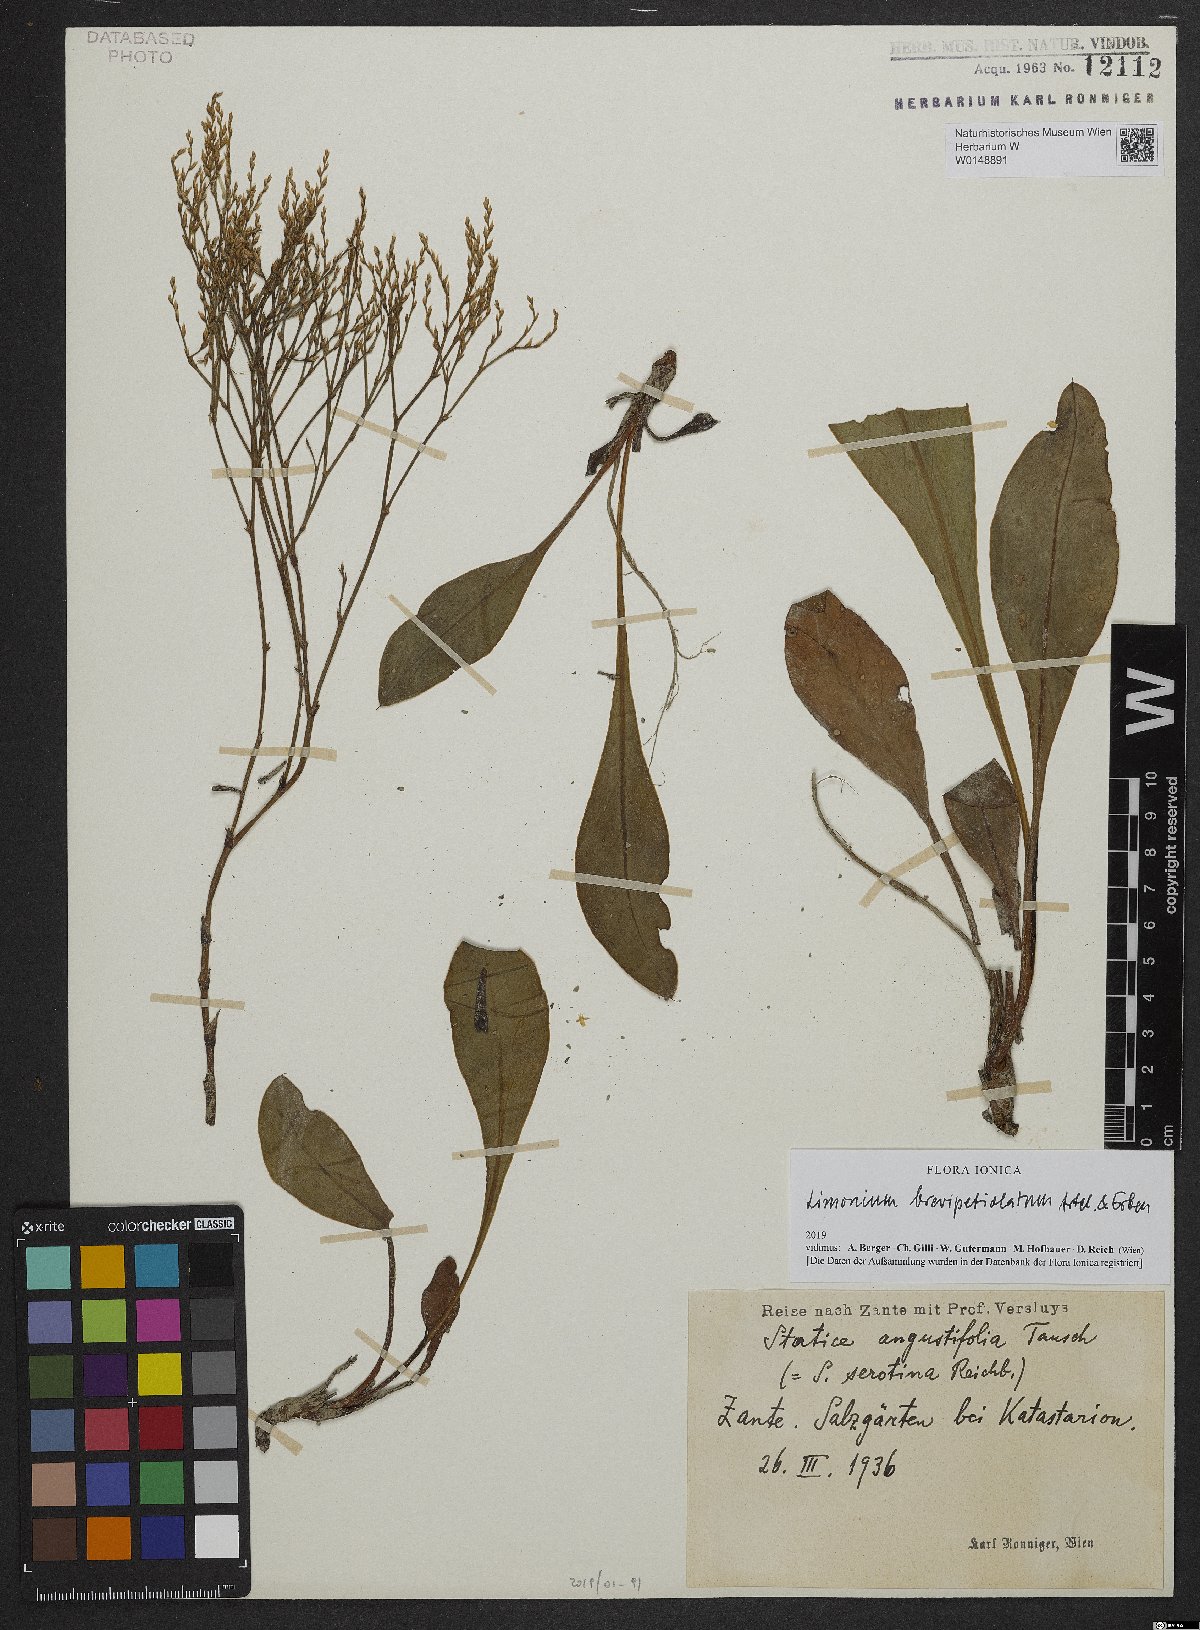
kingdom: Plantae
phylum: Tracheophyta
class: Magnoliopsida
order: Caryophyllales
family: Plumbaginaceae
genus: Limonium
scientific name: Limonium brevipetiolatum
